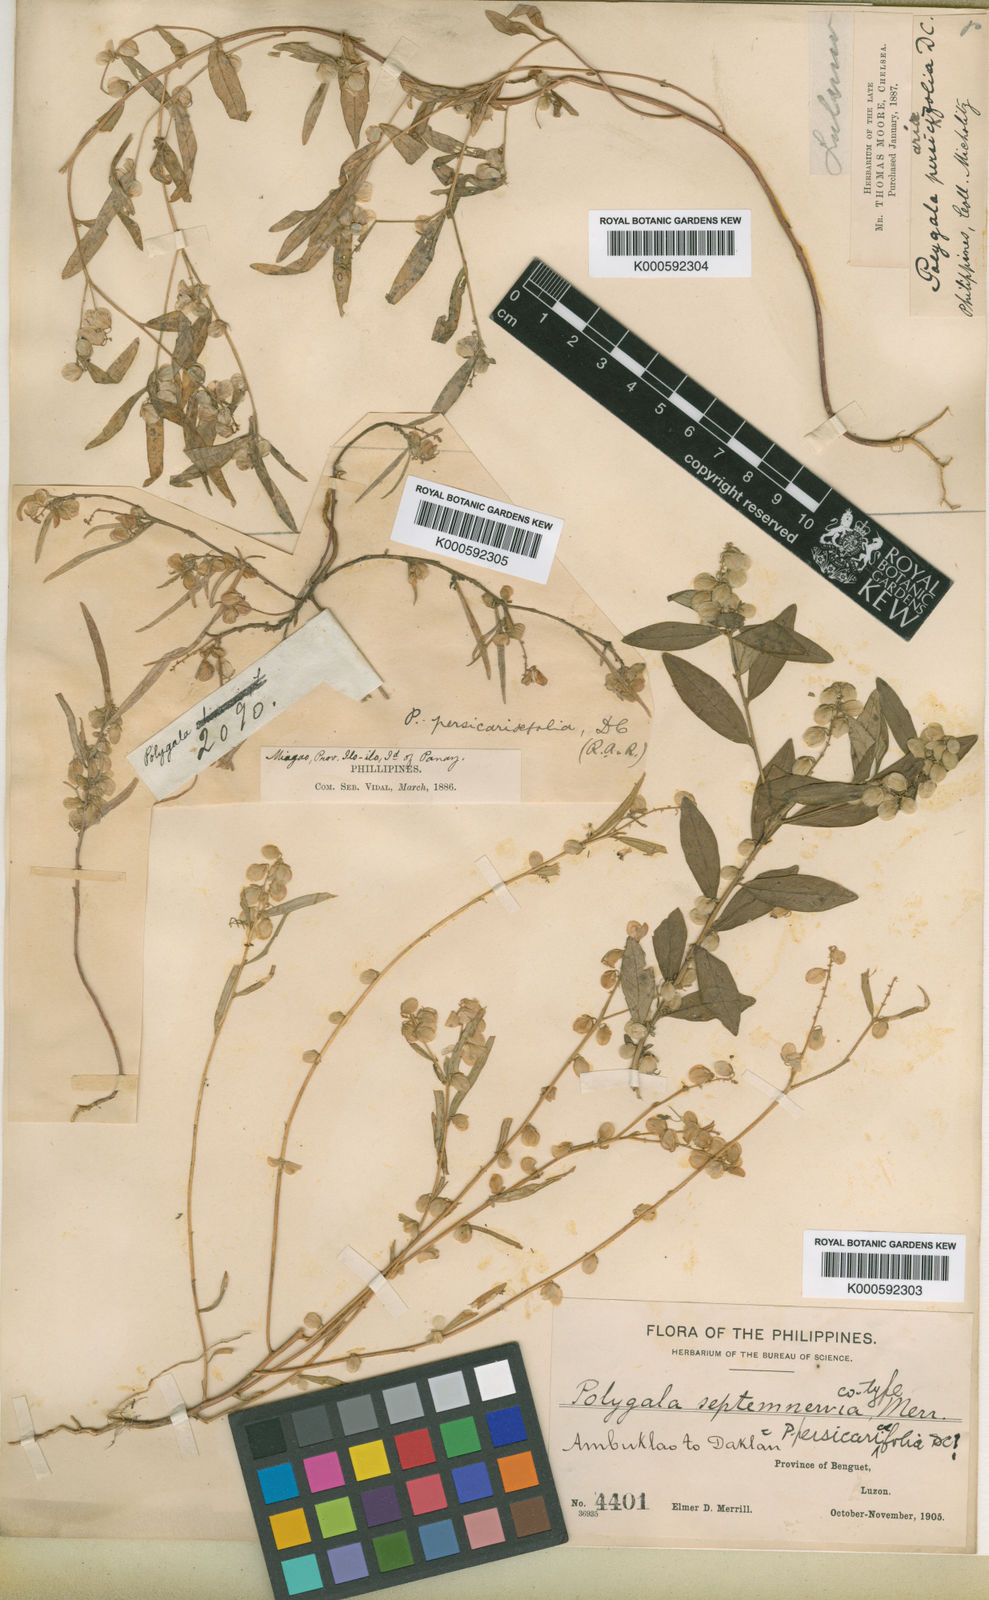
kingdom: Plantae
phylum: Tracheophyta
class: Magnoliopsida
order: Fabales
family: Polygalaceae
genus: Polygala
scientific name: Polygala persicariifolia
